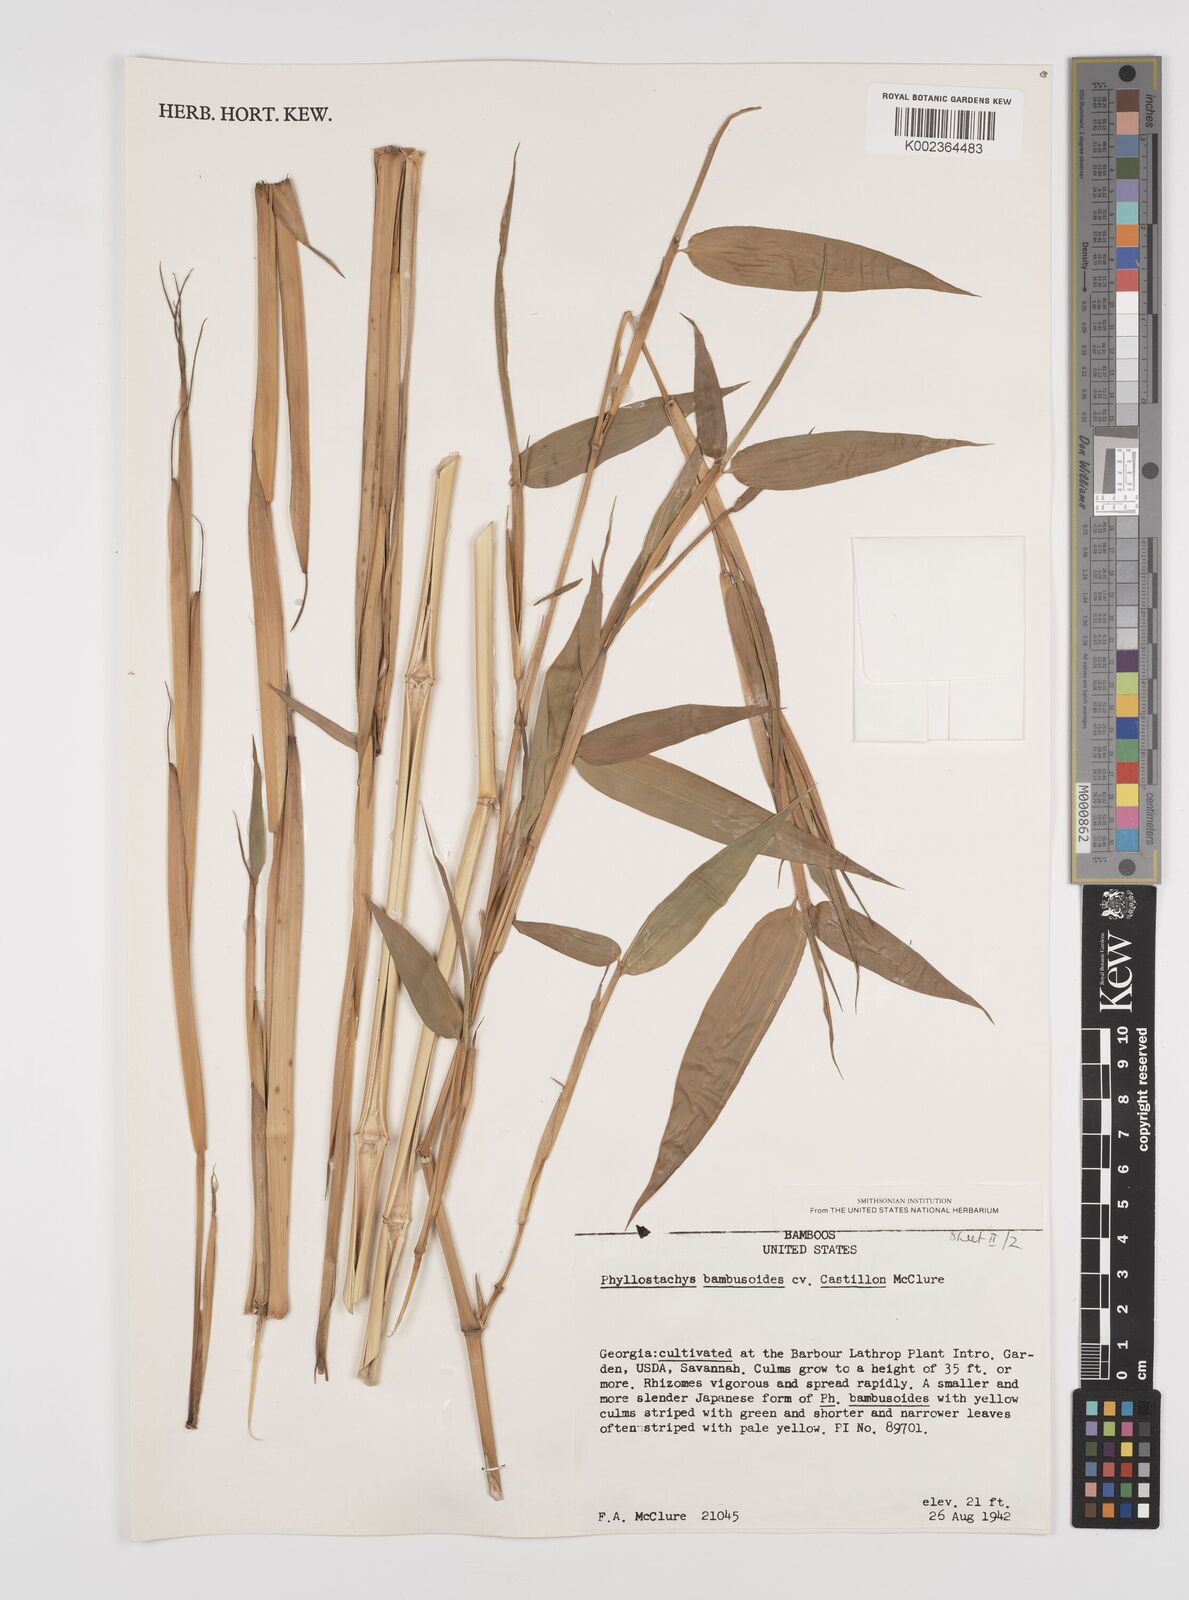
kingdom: Plantae
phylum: Tracheophyta
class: Liliopsida
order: Poales
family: Poaceae
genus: Phyllostachys
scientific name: Phyllostachys reticulata
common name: Bamboo
